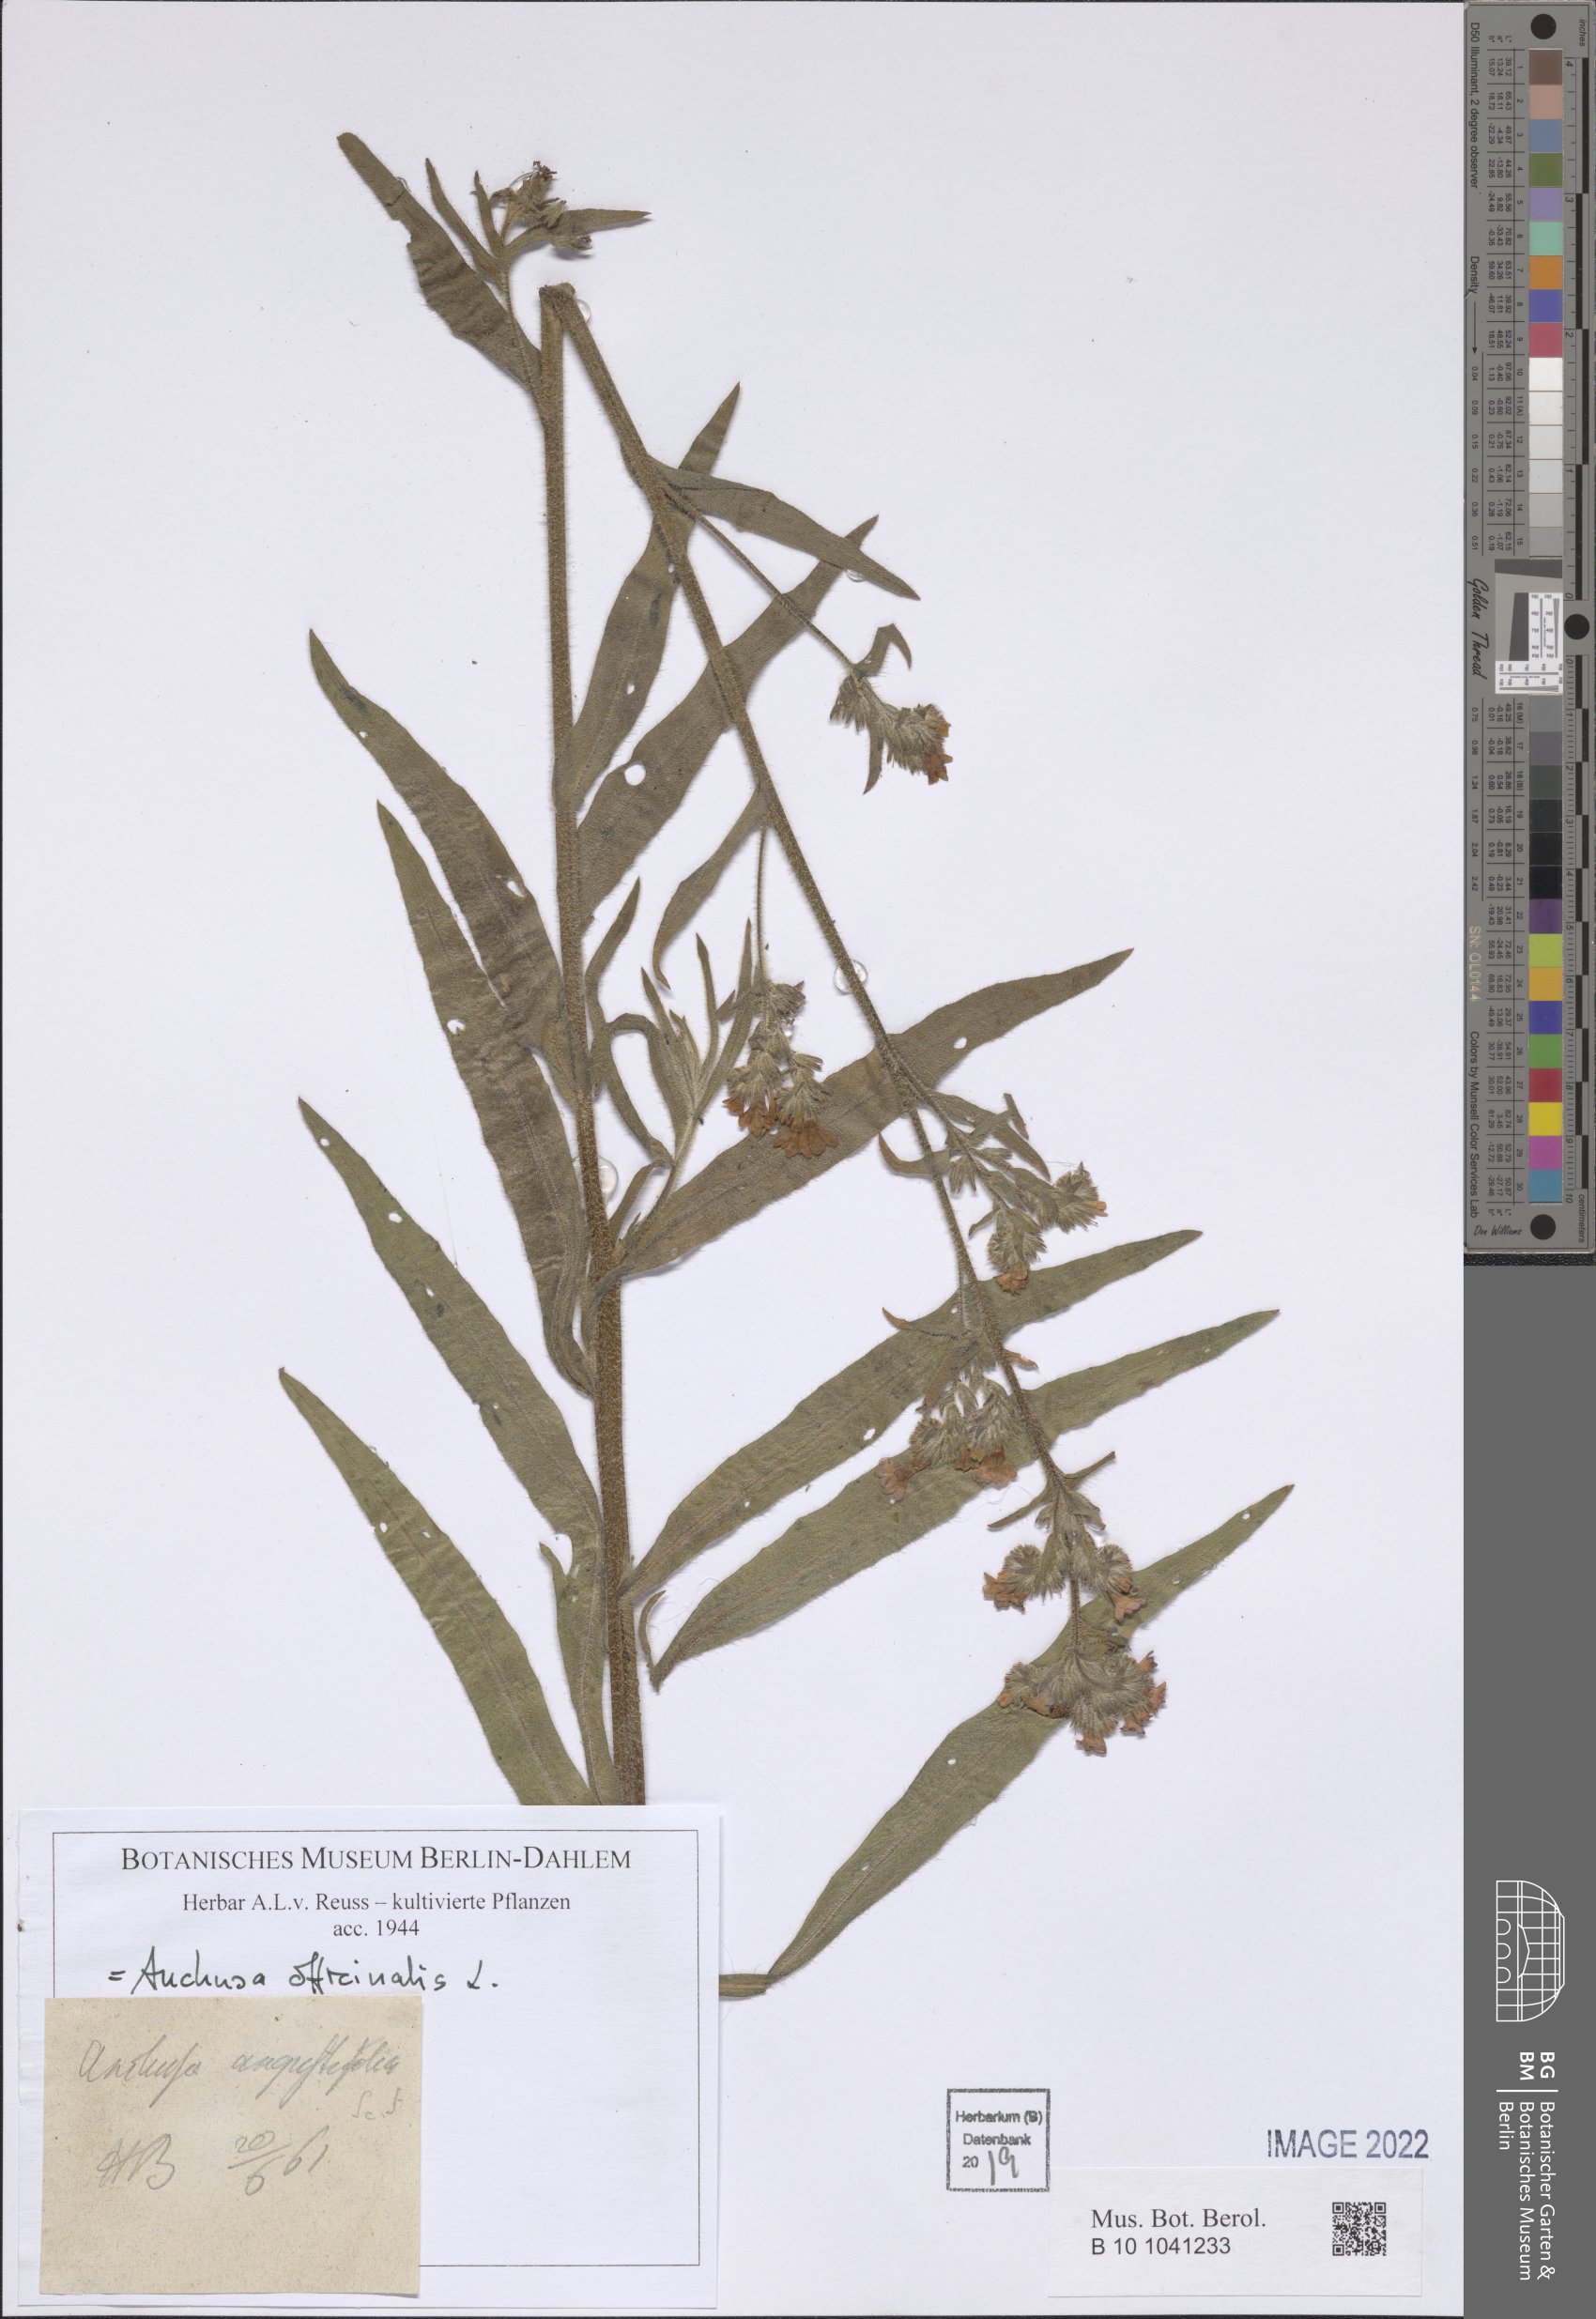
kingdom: Plantae
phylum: Tracheophyta
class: Magnoliopsida
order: Boraginales
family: Boraginaceae
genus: Anchusa
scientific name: Anchusa officinalis
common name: Alkanet
